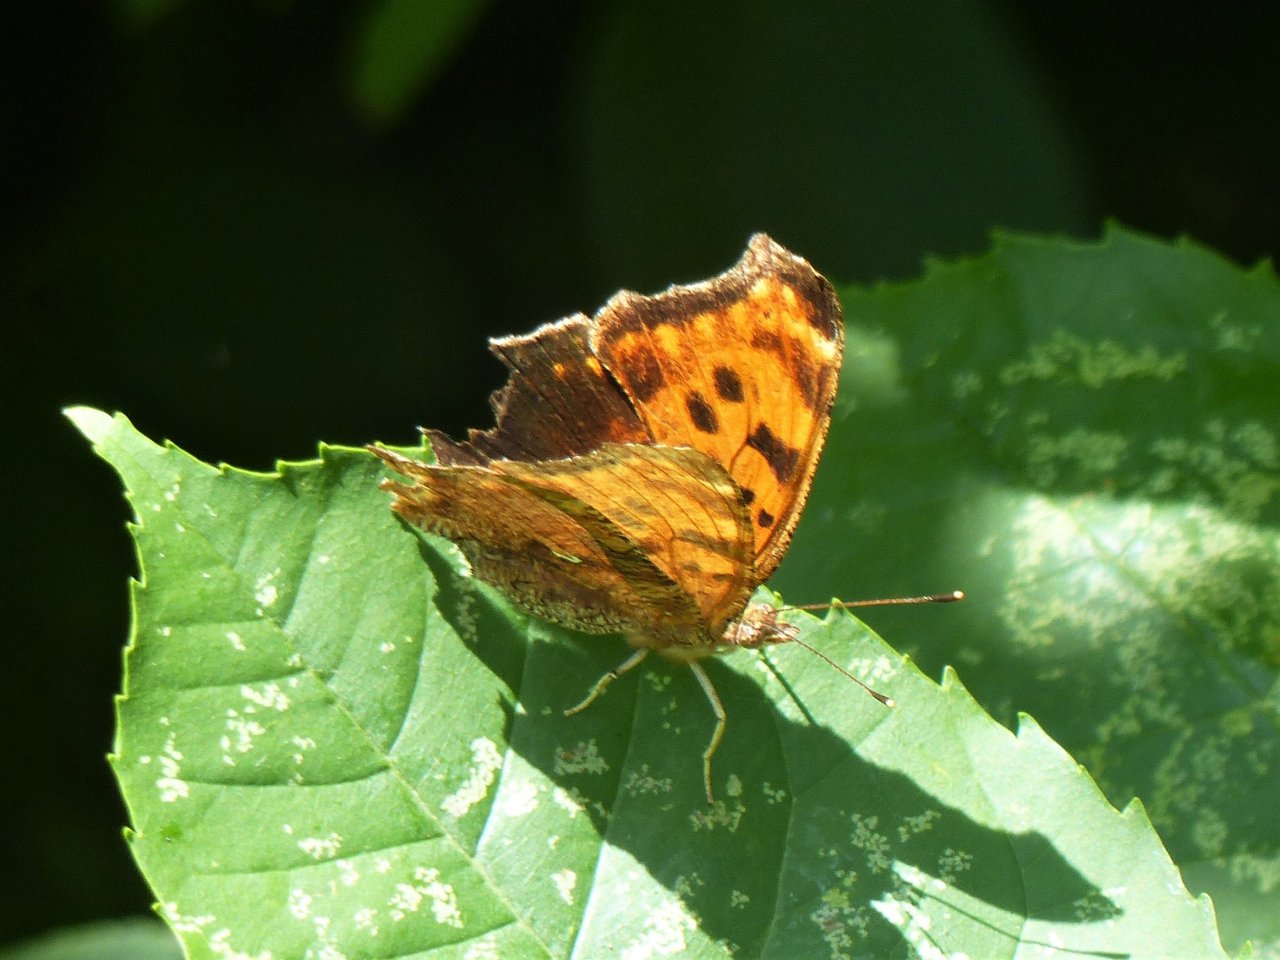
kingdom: Animalia
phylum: Arthropoda
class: Insecta
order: Lepidoptera
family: Nymphalidae
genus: Polygonia
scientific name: Polygonia comma
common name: Eastern Comma
